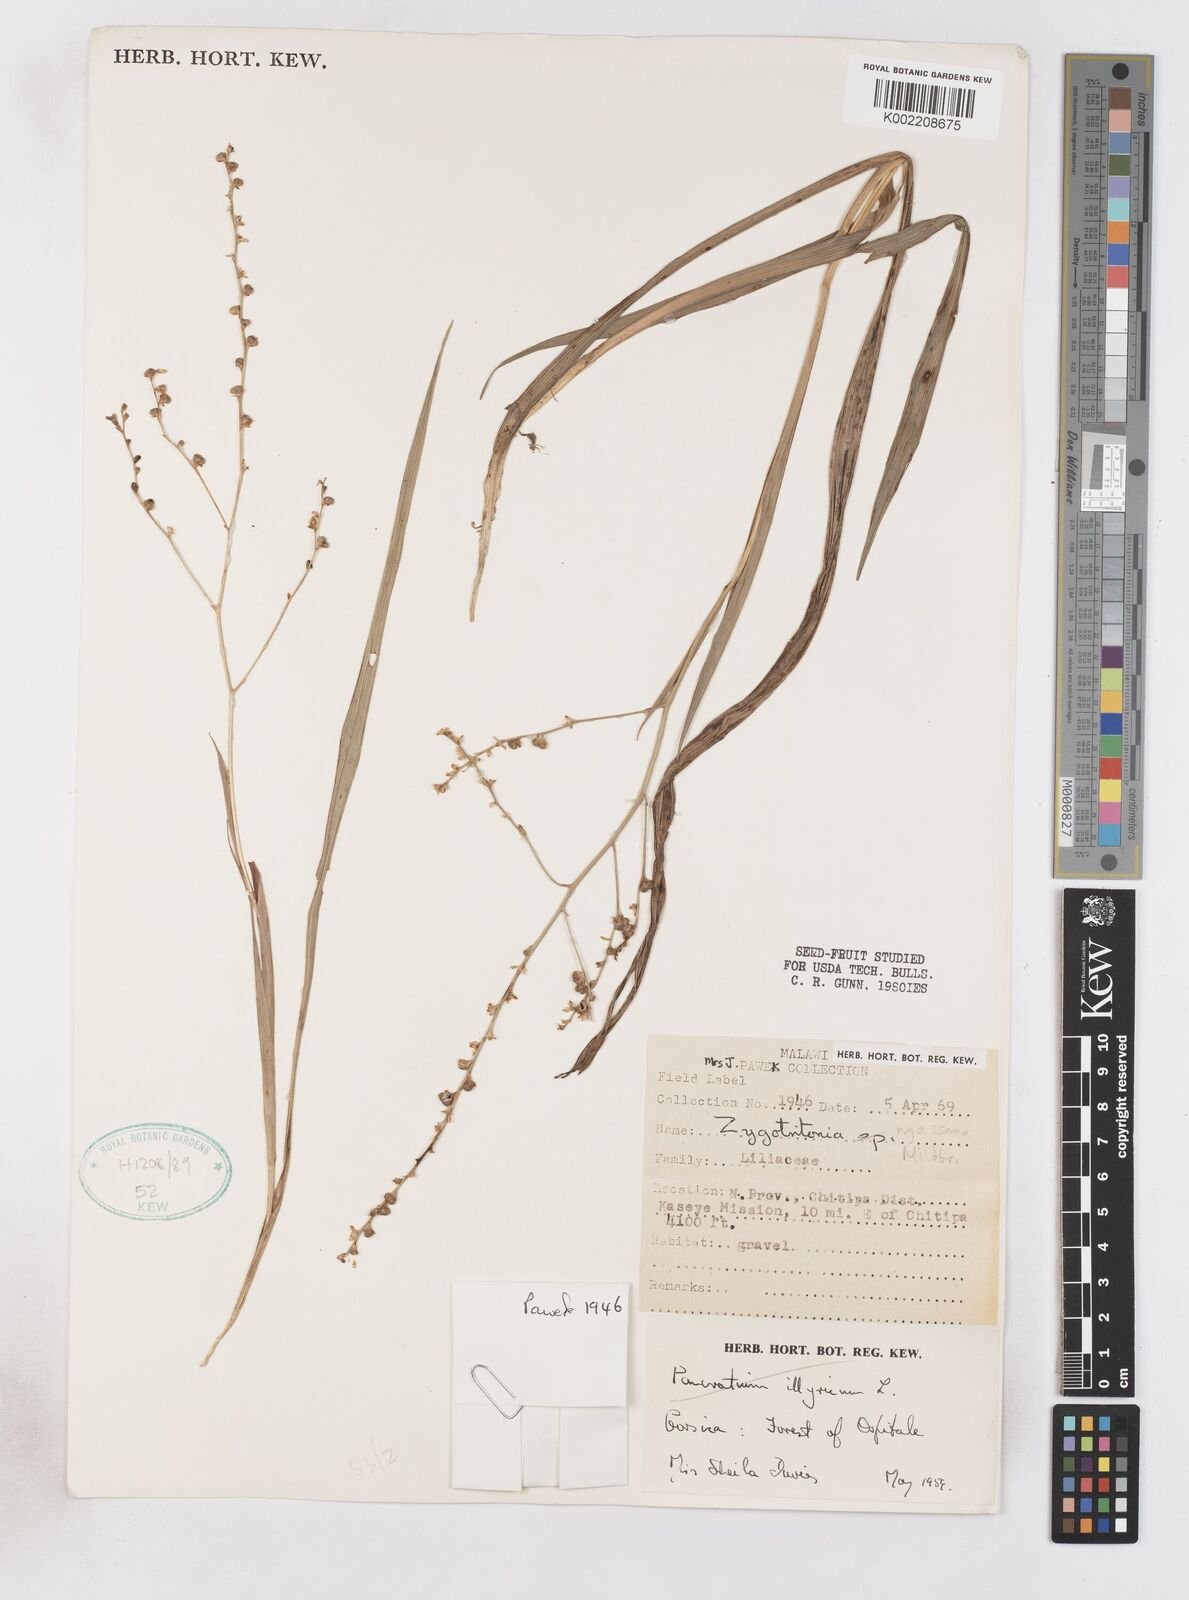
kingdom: Plantae
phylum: Tracheophyta
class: Liliopsida
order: Asparagales
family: Iridaceae
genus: Zygotritonia
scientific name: Zygotritonia nyassana
